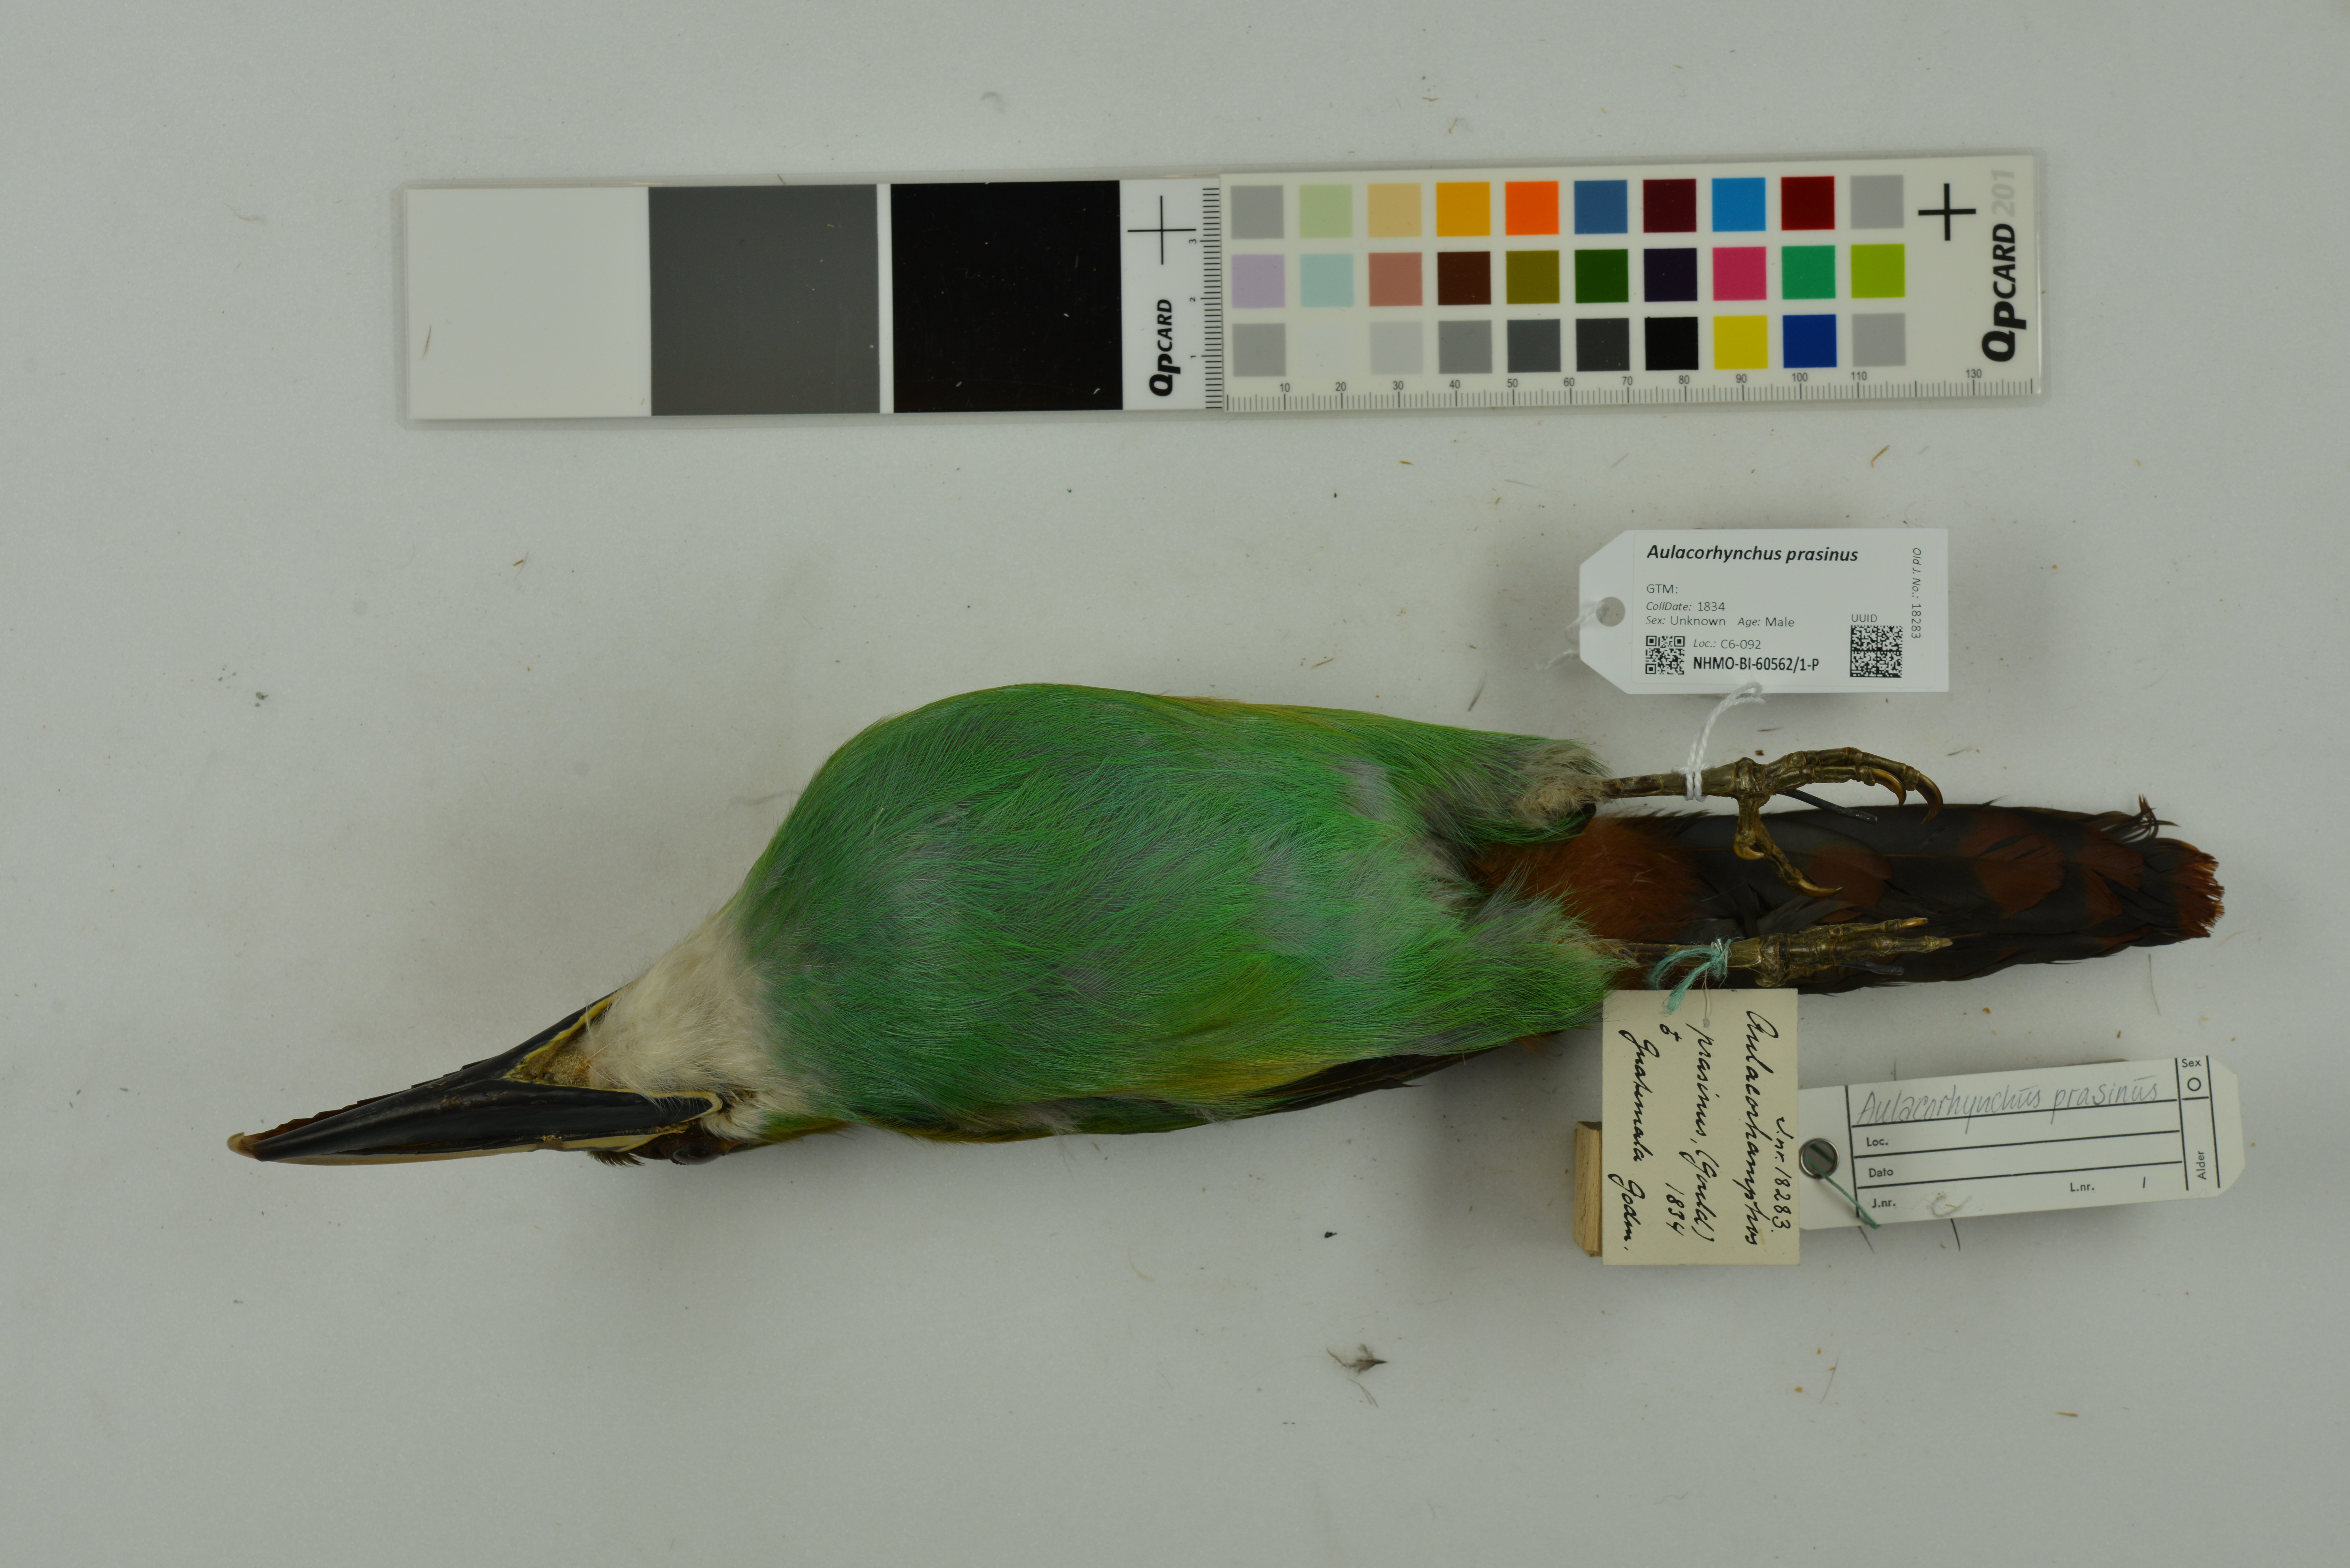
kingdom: Animalia
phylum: Chordata
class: Aves
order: Piciformes
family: Ramphastidae
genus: Aulacorhynchus
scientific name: Aulacorhynchus prasinus
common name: Emerald toucanet
